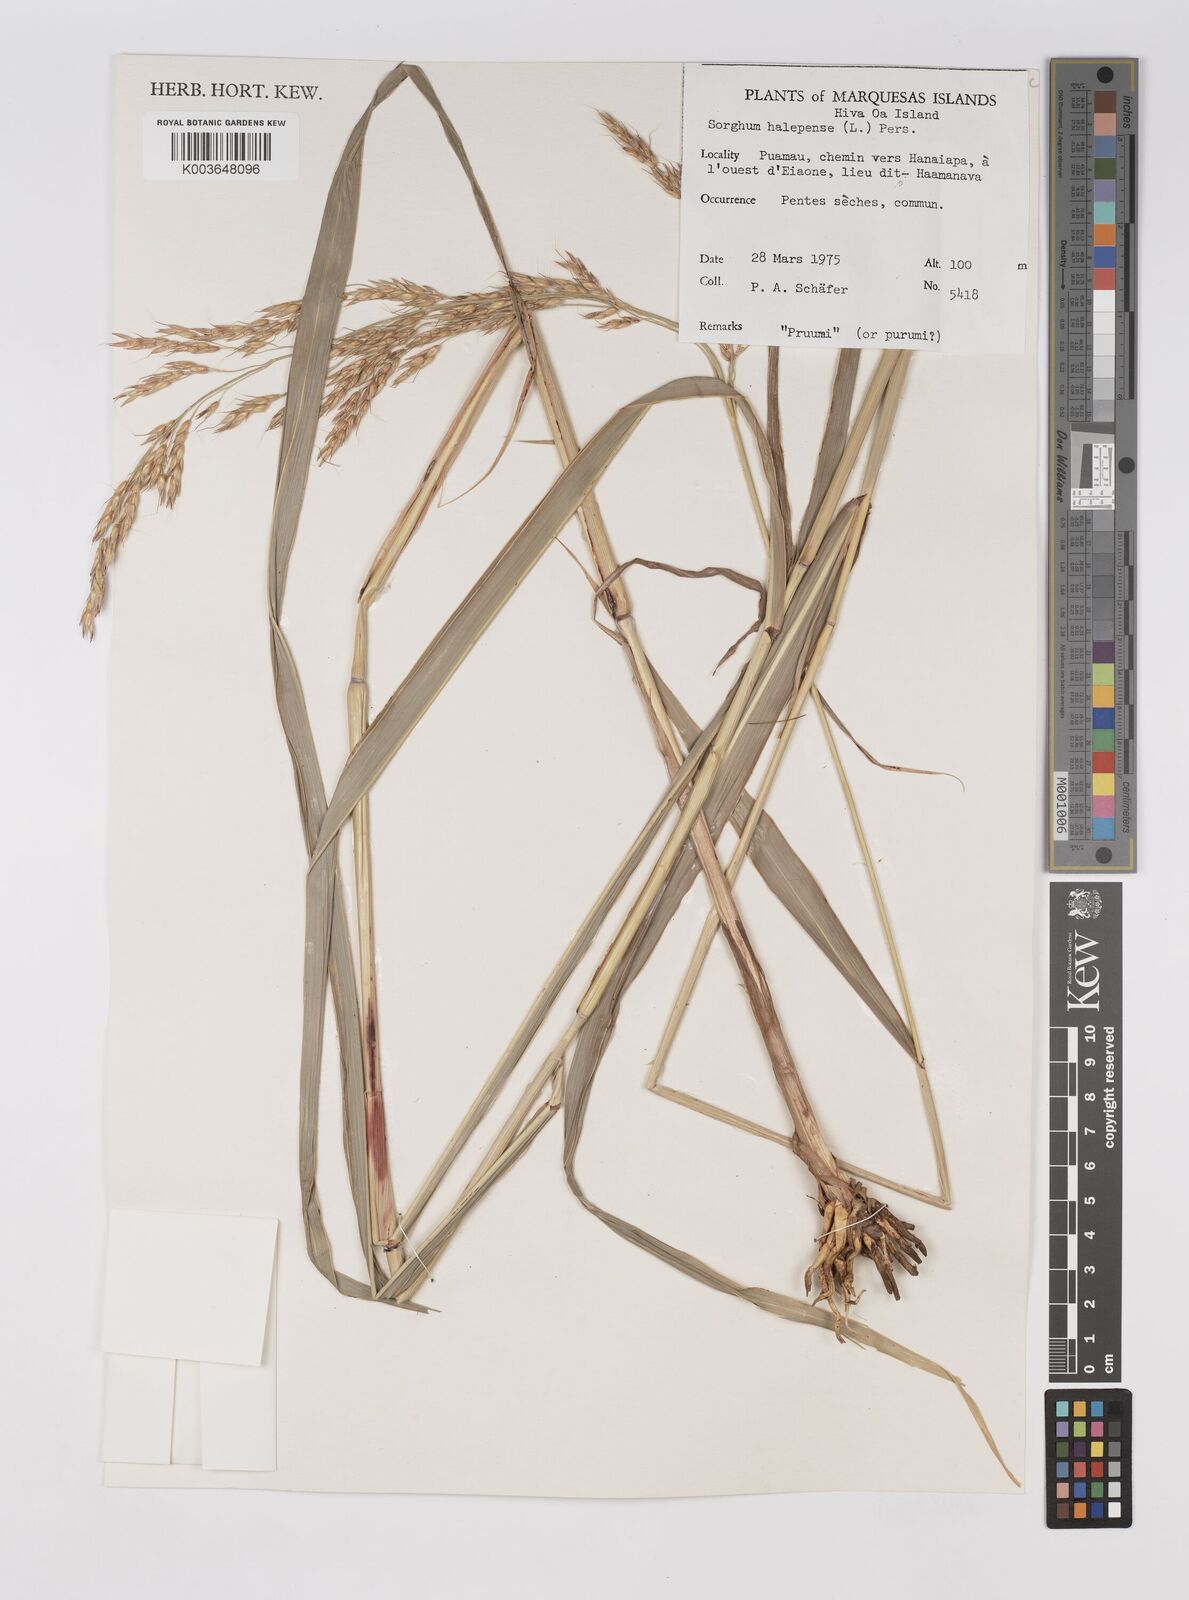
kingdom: Plantae
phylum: Tracheophyta
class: Liliopsida
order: Poales
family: Poaceae
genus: Sorghum
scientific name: Sorghum halepense
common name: Johnson-grass
